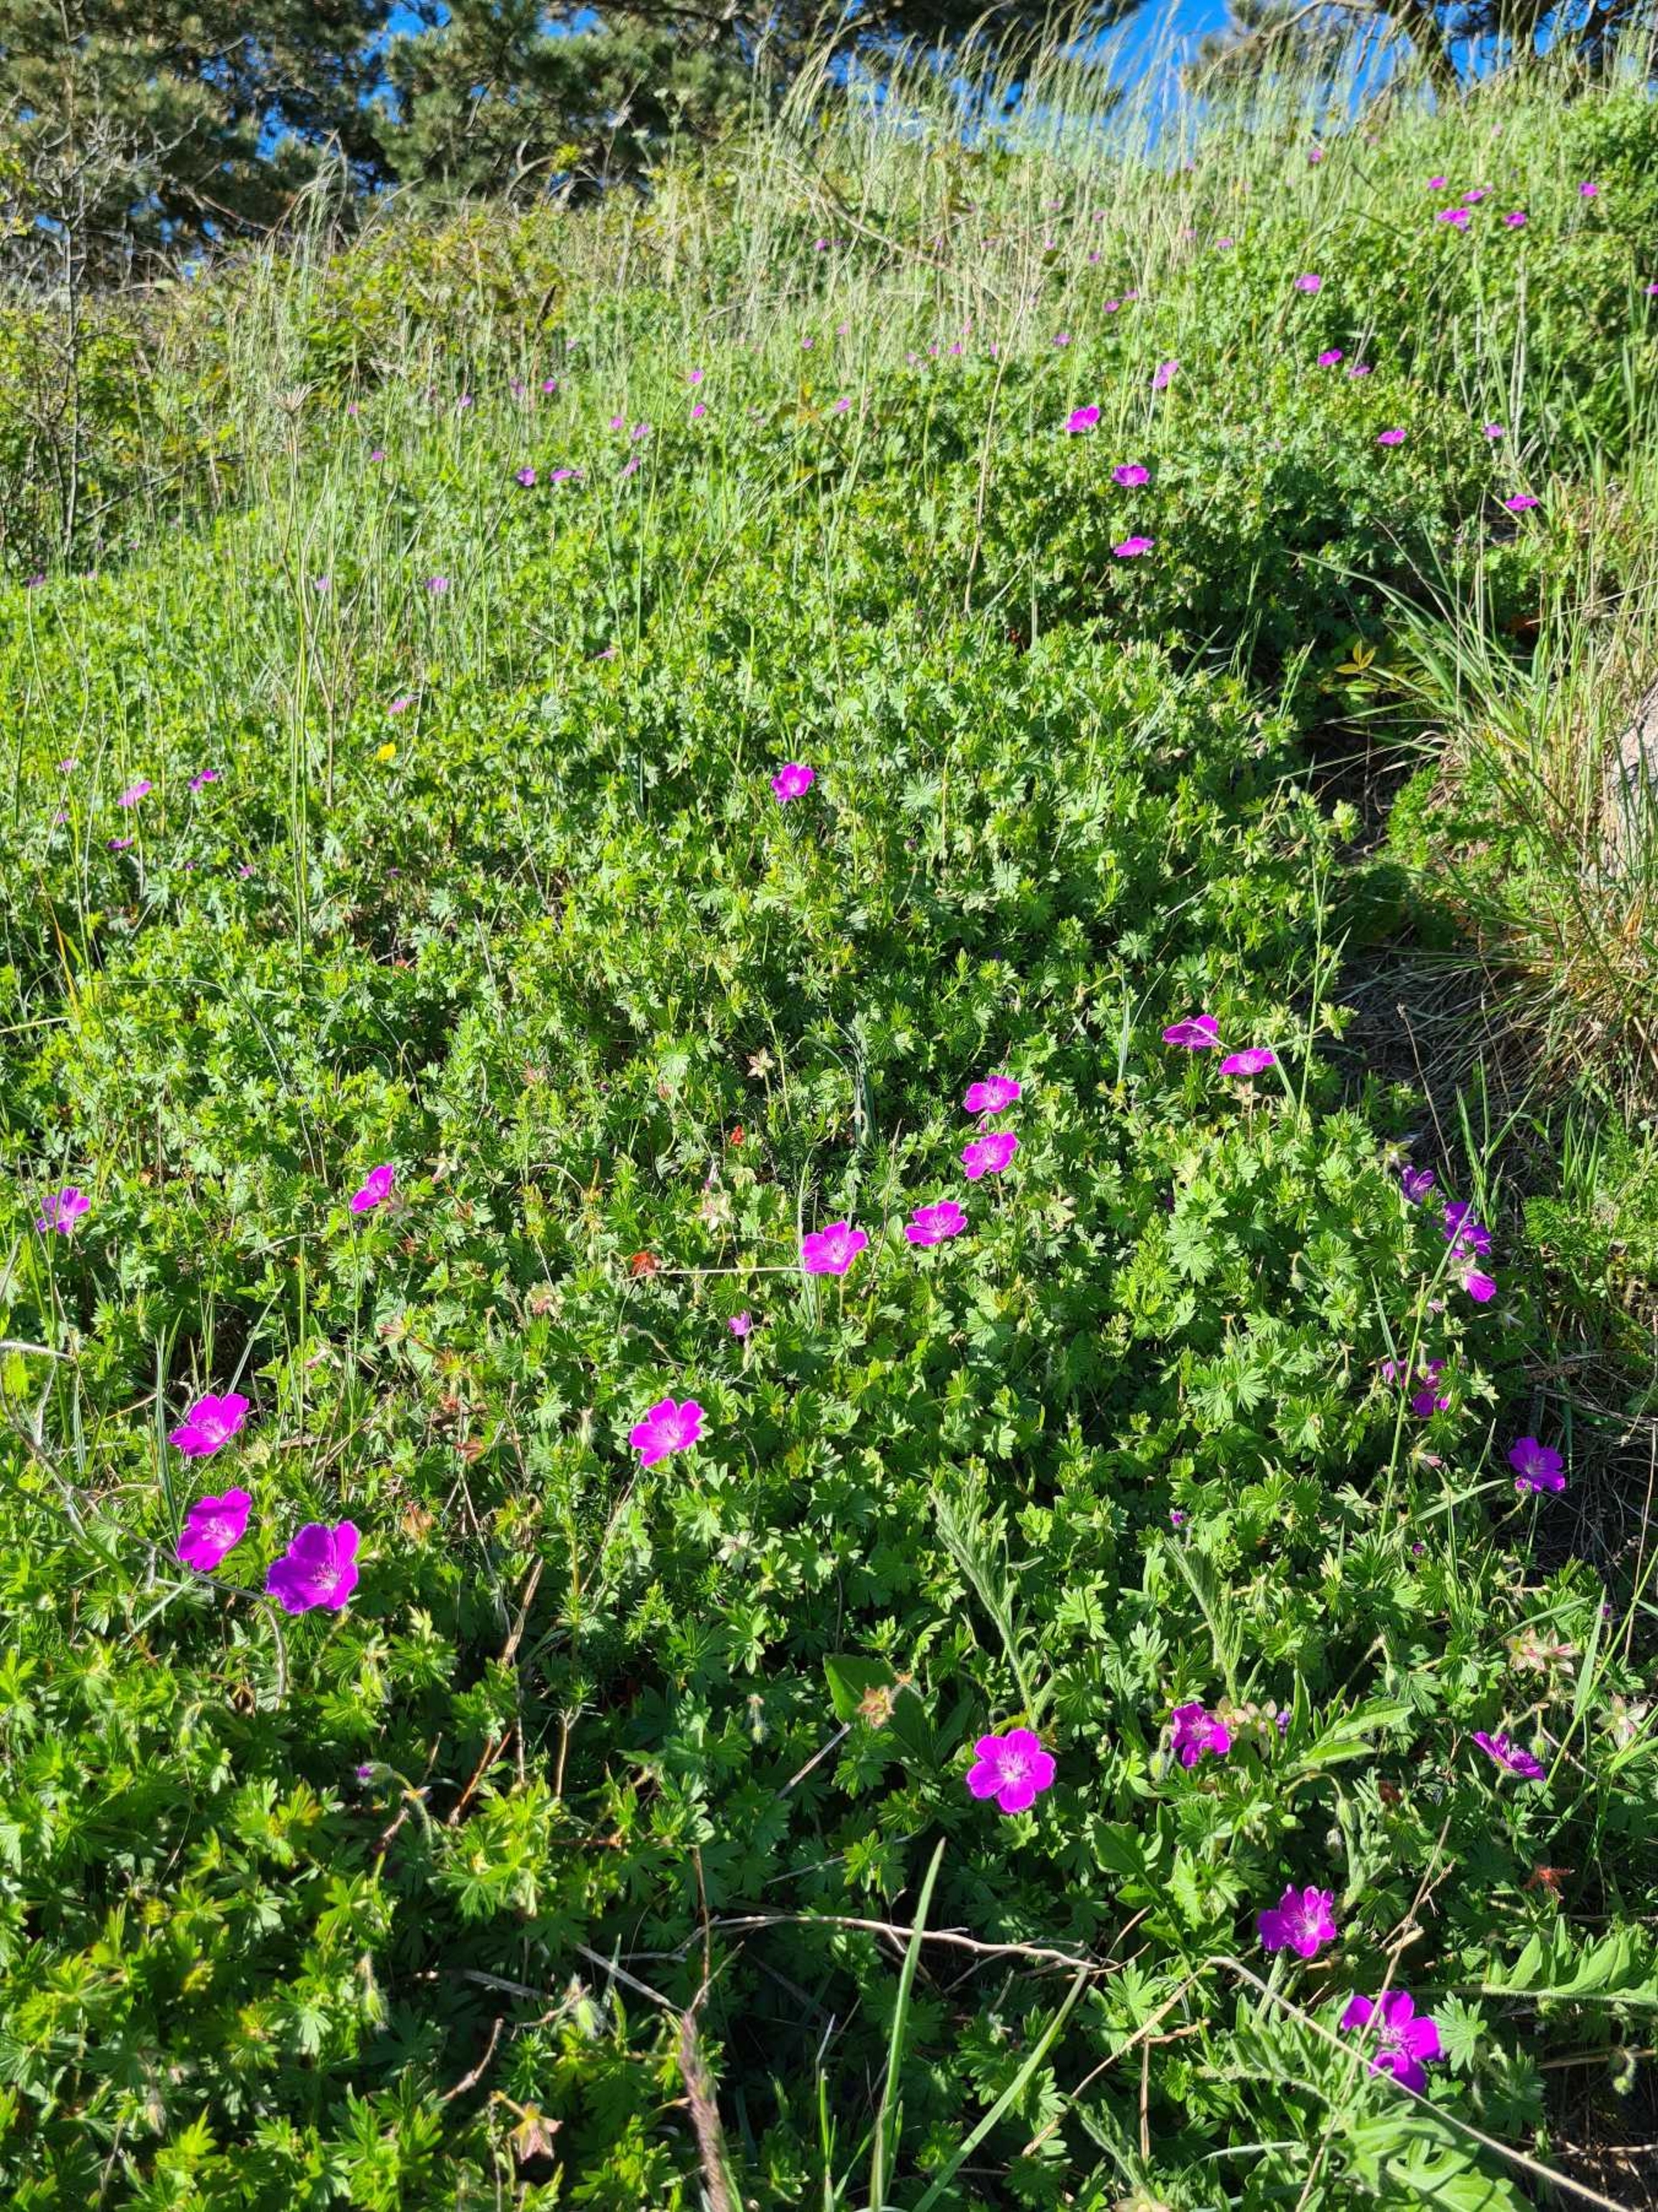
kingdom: Plantae
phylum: Tracheophyta
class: Magnoliopsida
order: Geraniales
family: Geraniaceae
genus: Geranium
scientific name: Geranium sanguineum
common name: Blodrød storkenæb
